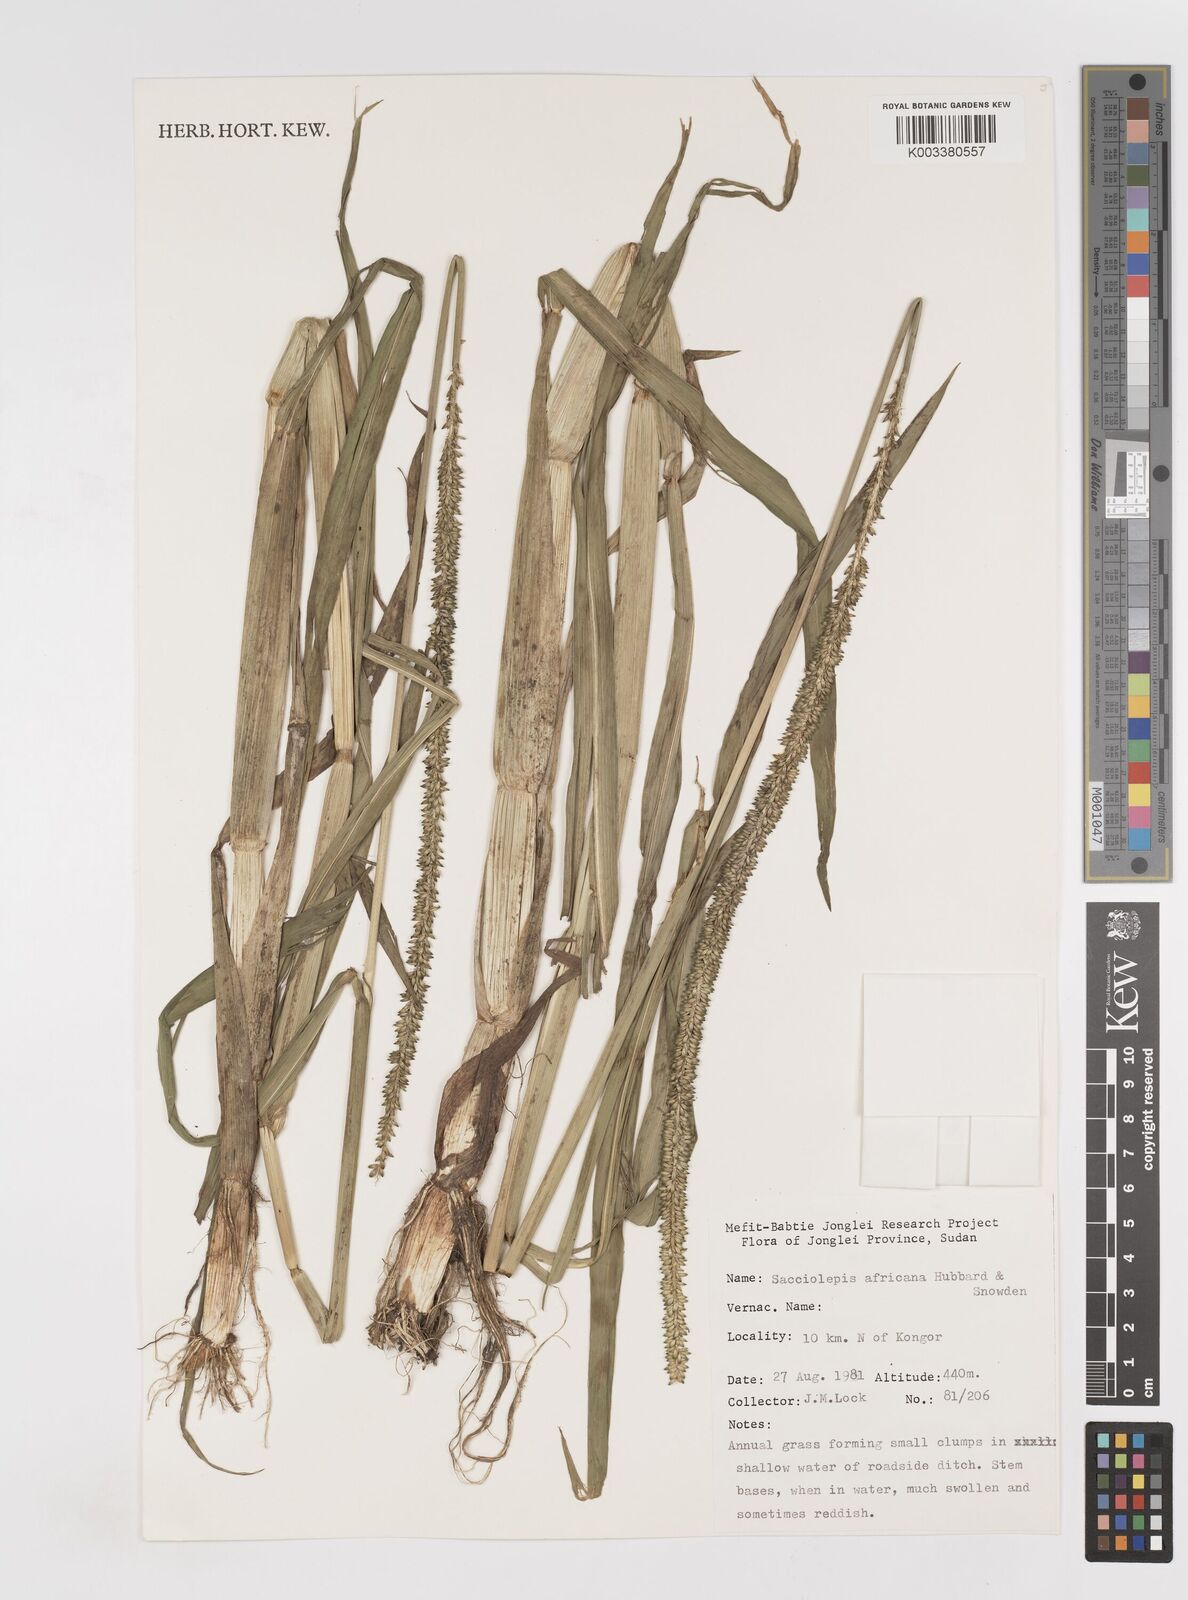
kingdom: Plantae
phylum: Tracheophyta
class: Liliopsida
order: Poales
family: Poaceae
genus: Sacciolepis
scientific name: Sacciolepis africana
